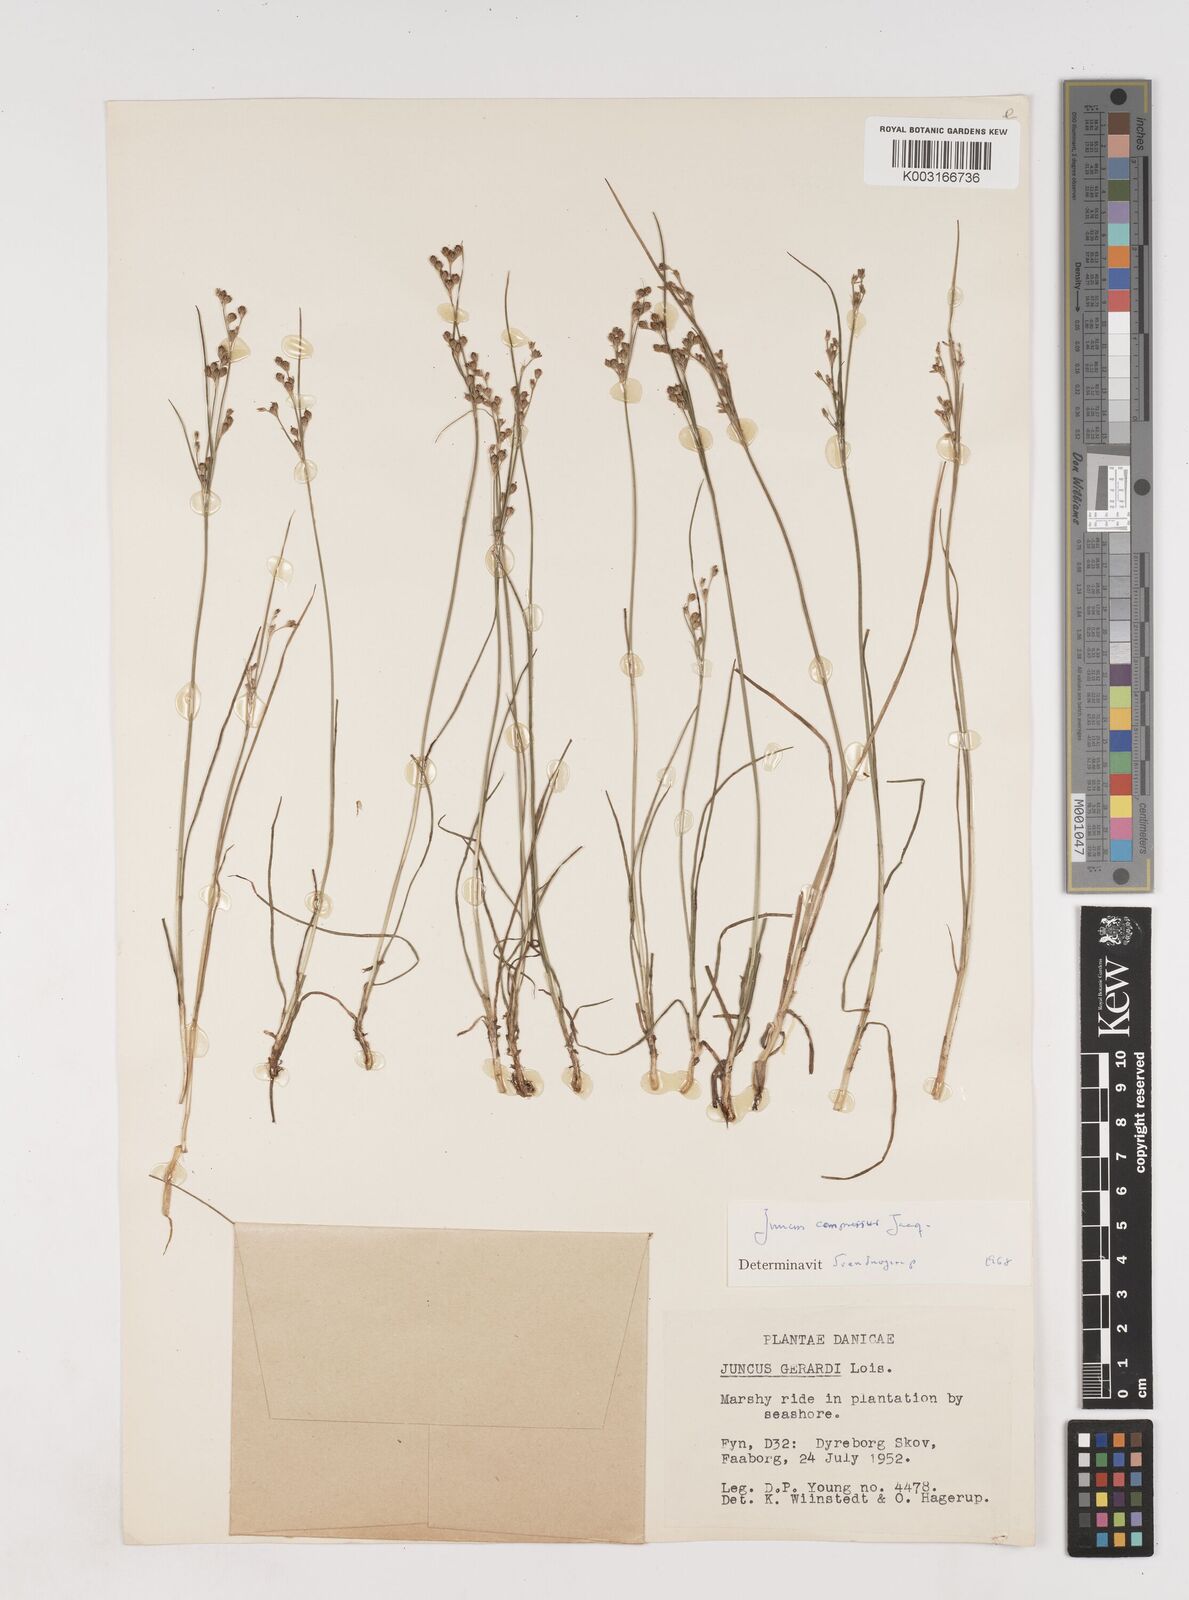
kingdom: Plantae
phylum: Tracheophyta
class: Liliopsida
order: Poales
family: Juncaceae
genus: Juncus
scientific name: Juncus
